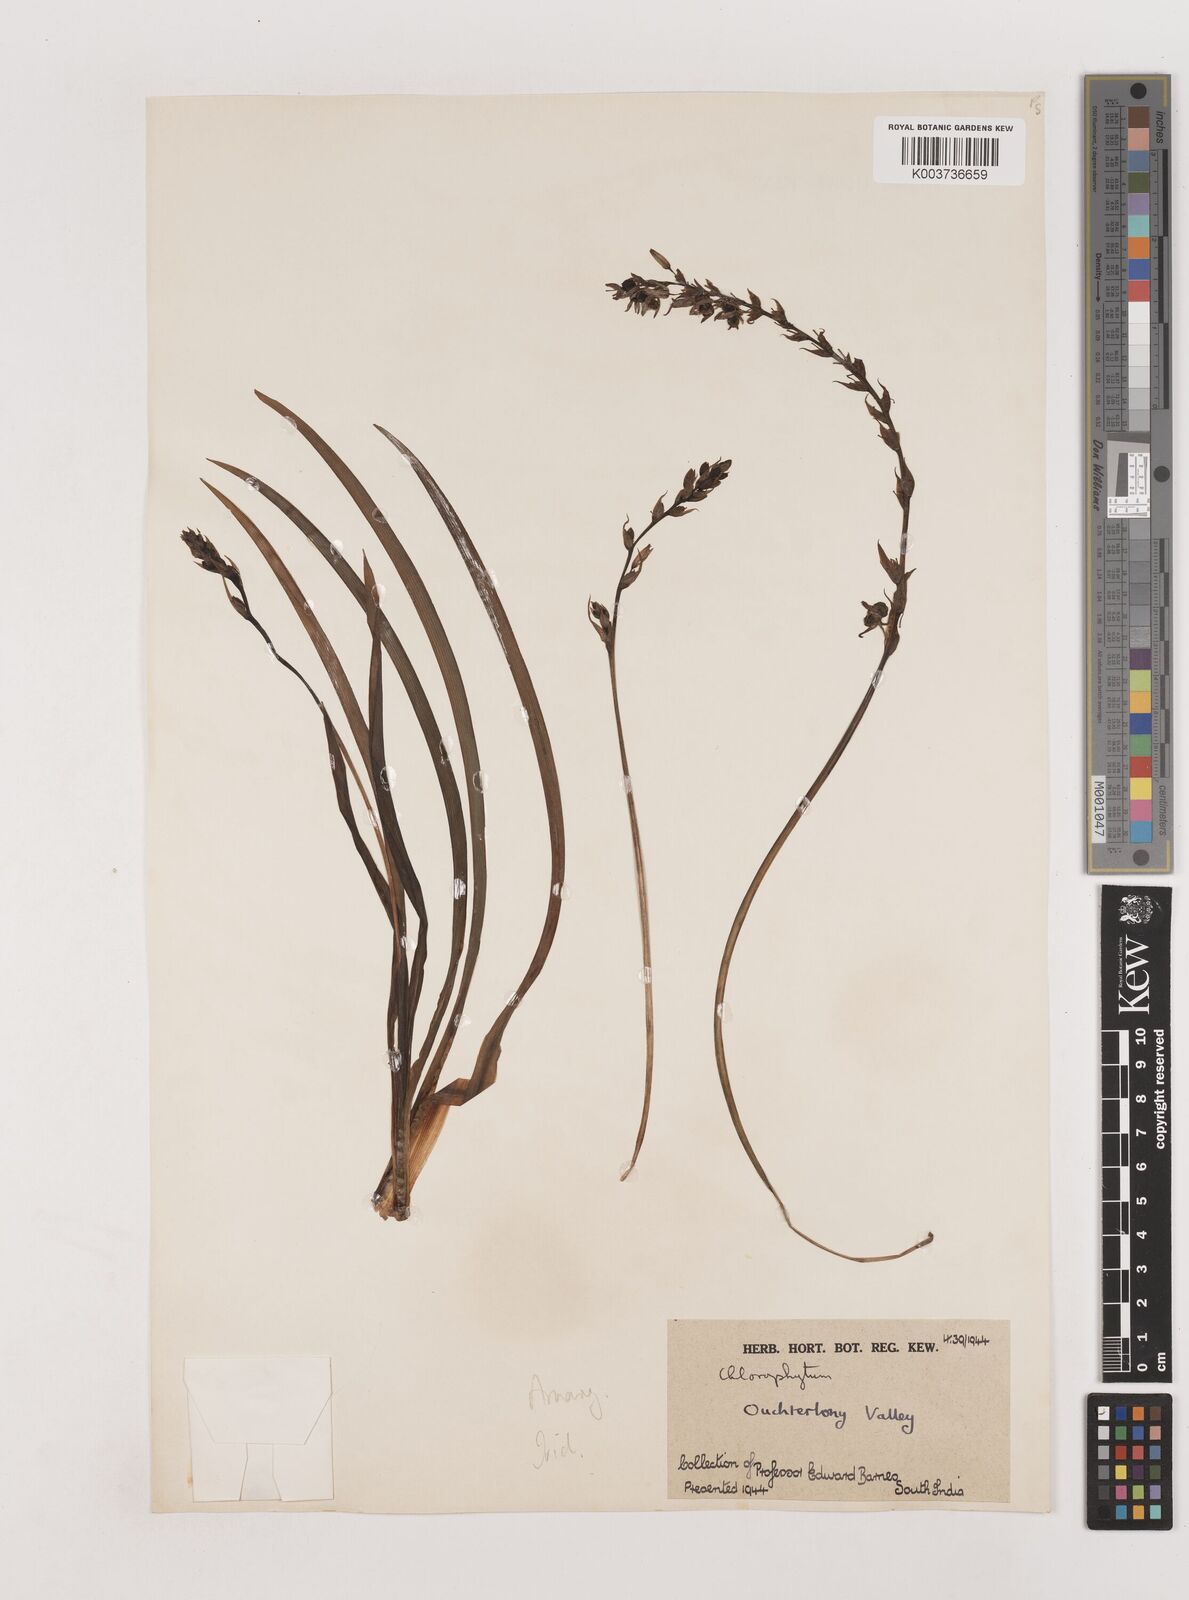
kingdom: Plantae
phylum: Tracheophyta
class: Liliopsida
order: Asparagales
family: Asparagaceae
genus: Chlorophytum
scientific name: Chlorophytum
